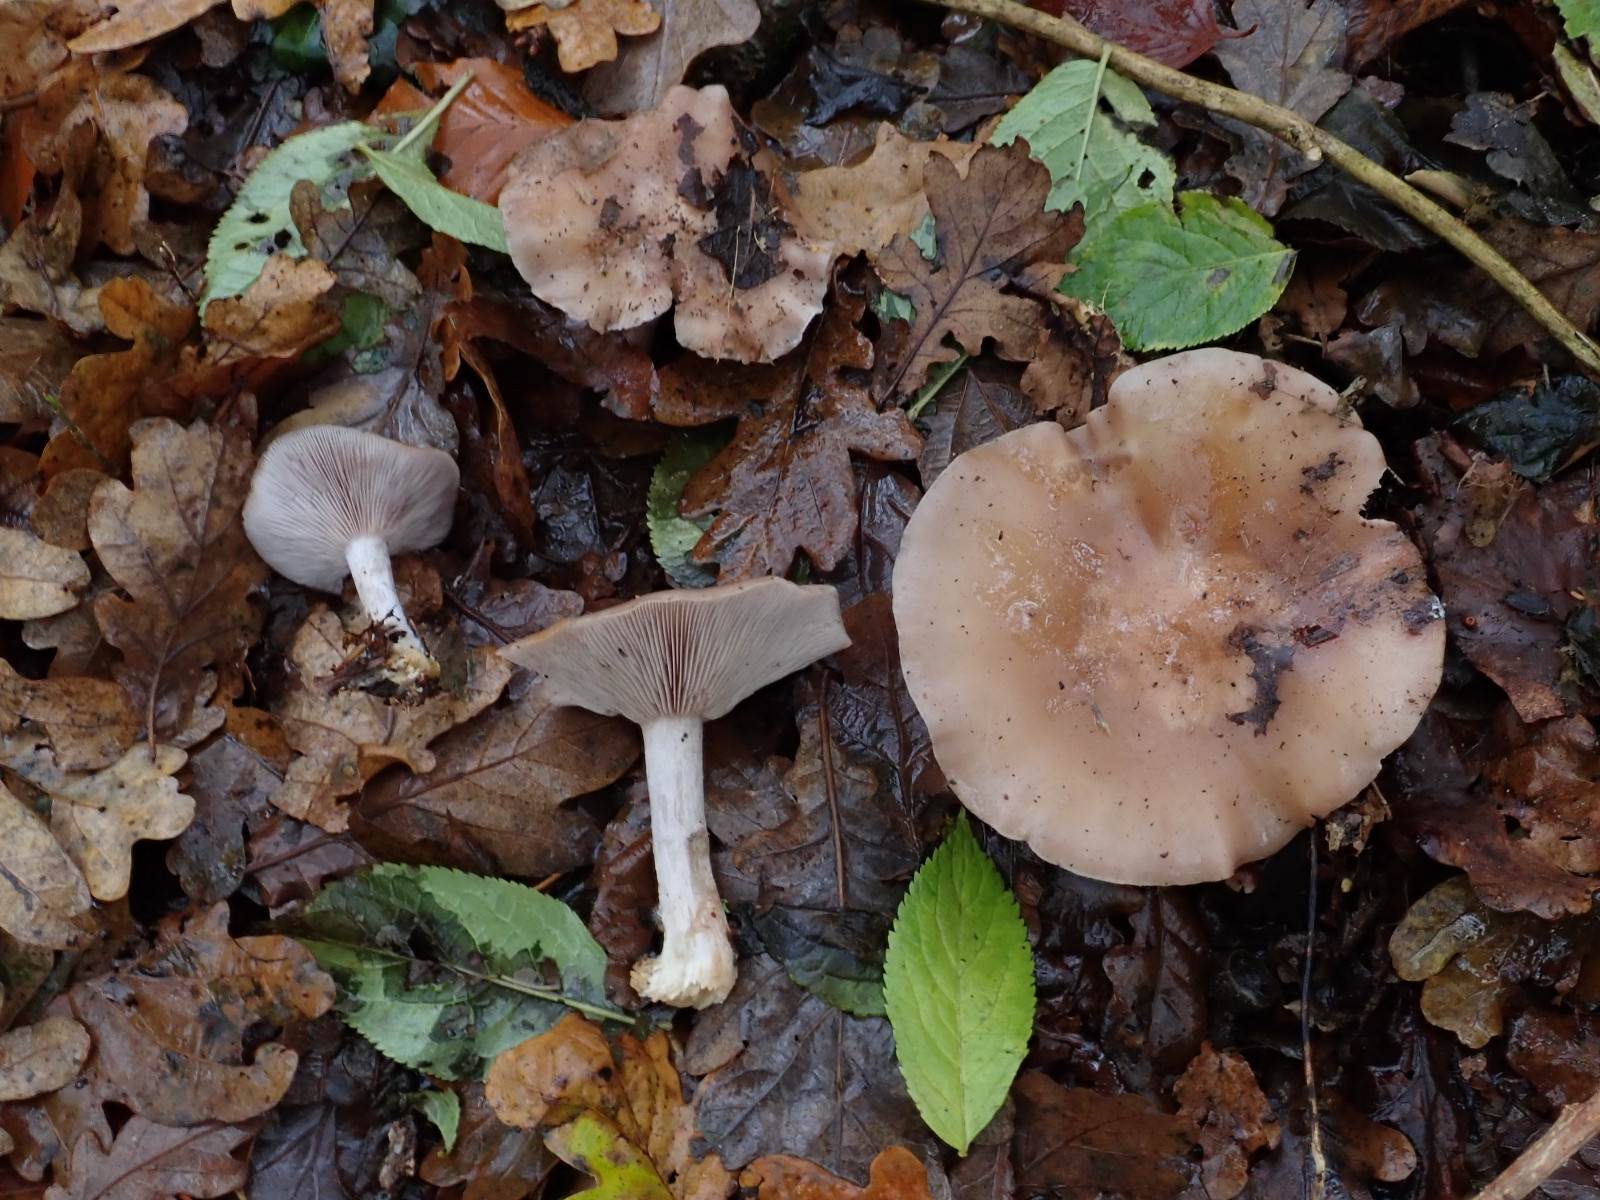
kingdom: Fungi
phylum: Basidiomycota
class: Agaricomycetes
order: Agaricales
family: Tricholomataceae
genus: Lepista
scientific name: Lepista nuda
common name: violet hekseringshat
